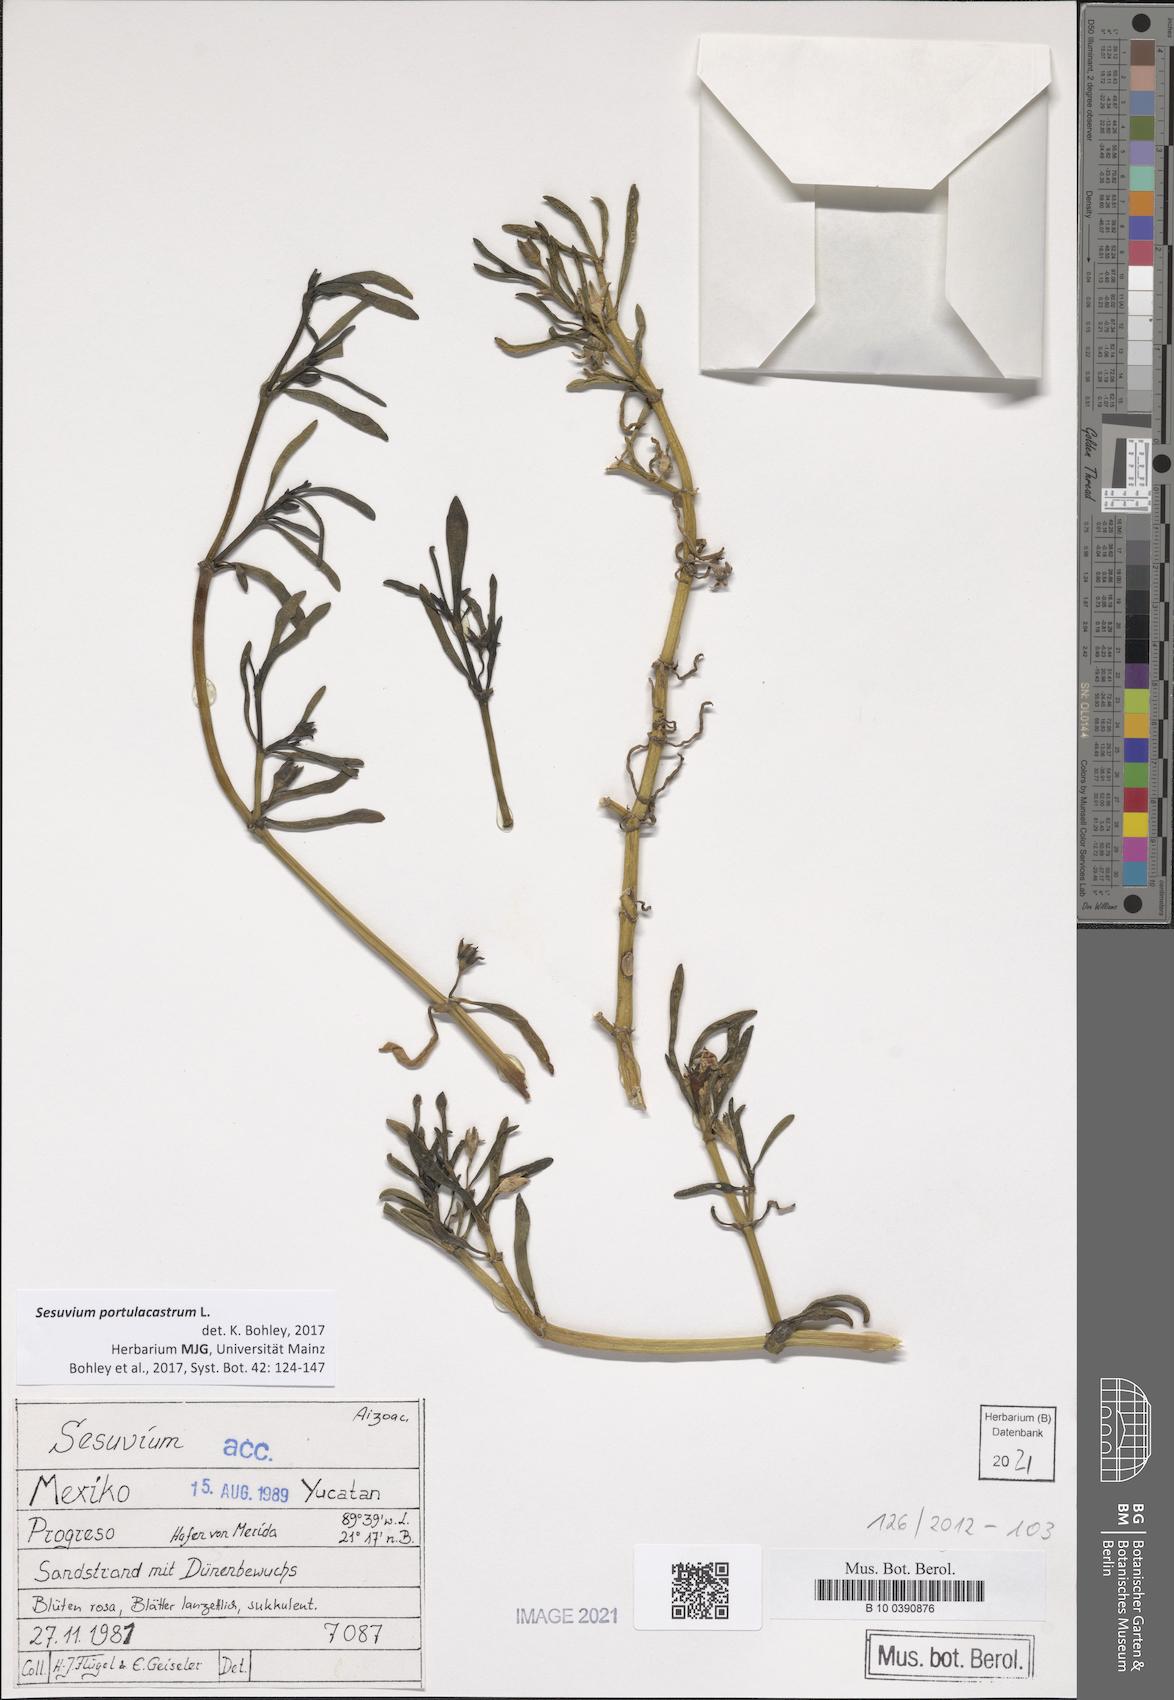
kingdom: Plantae
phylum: Tracheophyta
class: Magnoliopsida
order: Caryophyllales
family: Aizoaceae
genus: Sesuvium
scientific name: Sesuvium portulacastrum
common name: Sea-purslane
